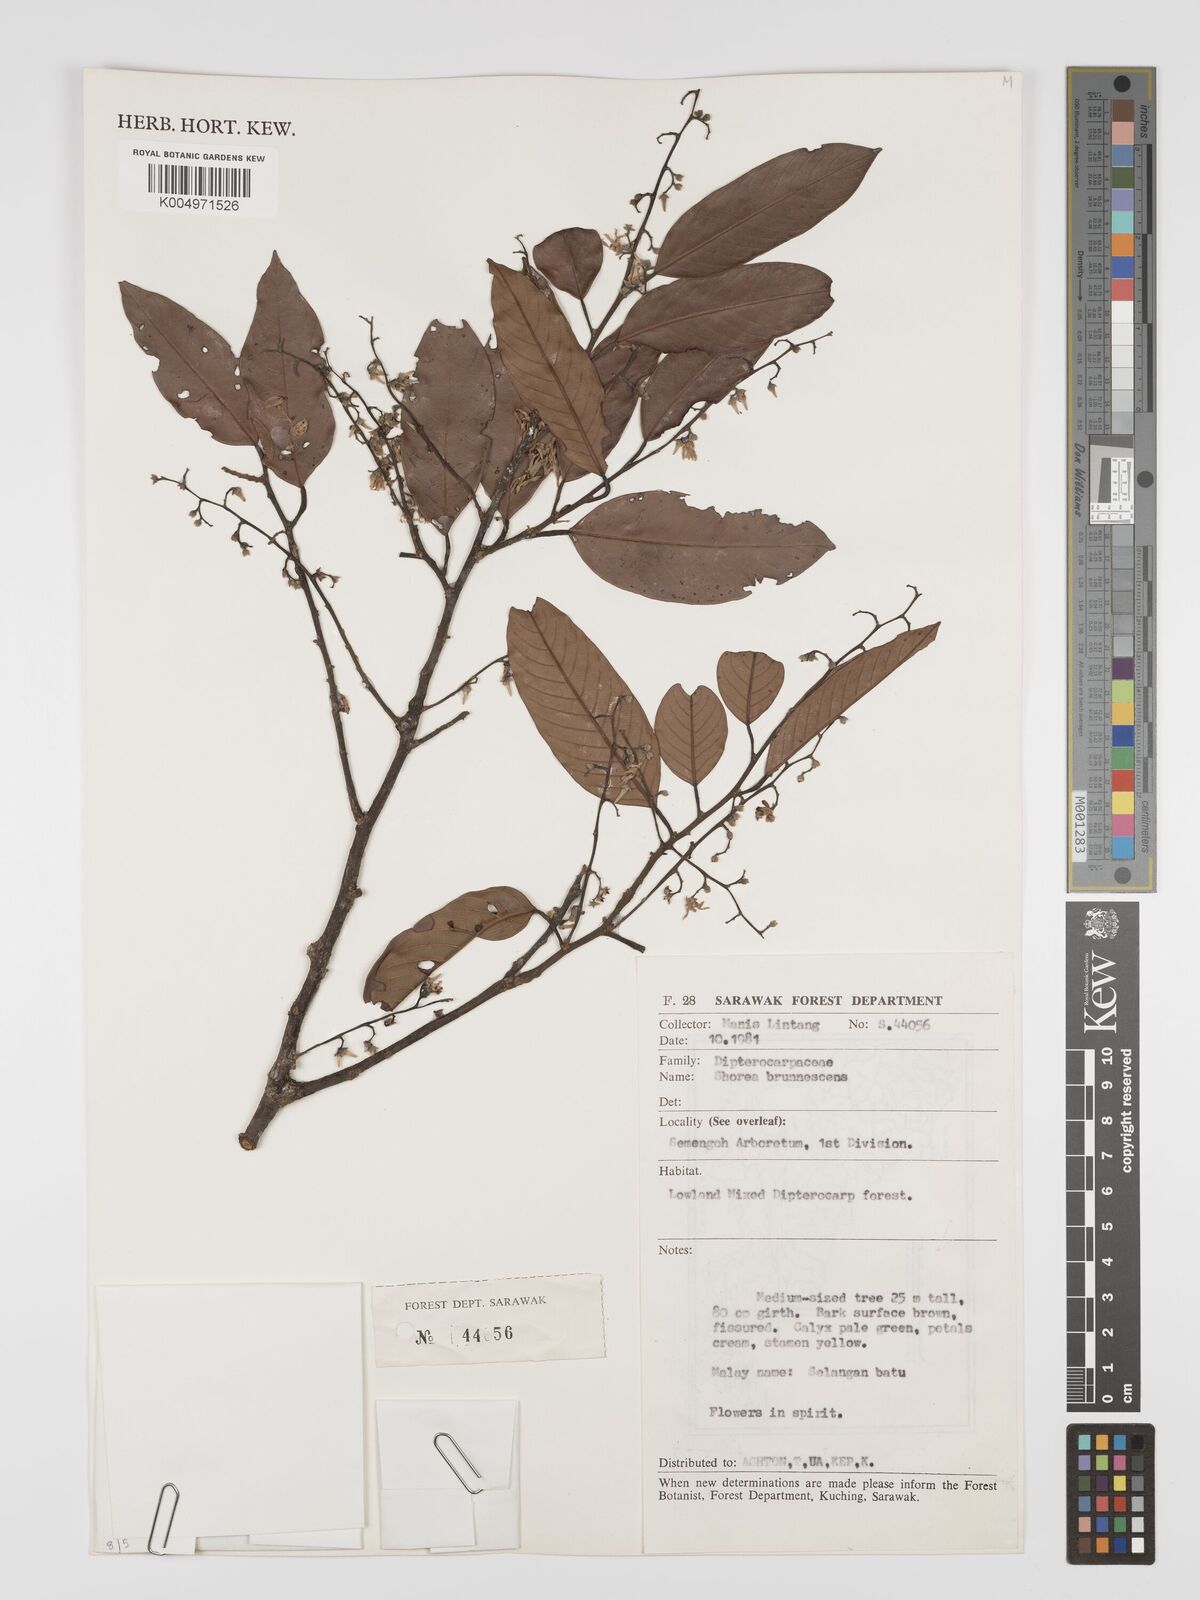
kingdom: Plantae
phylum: Tracheophyta
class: Magnoliopsida
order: Malvales
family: Dipterocarpaceae
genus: Shorea
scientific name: Shorea brunnescens
